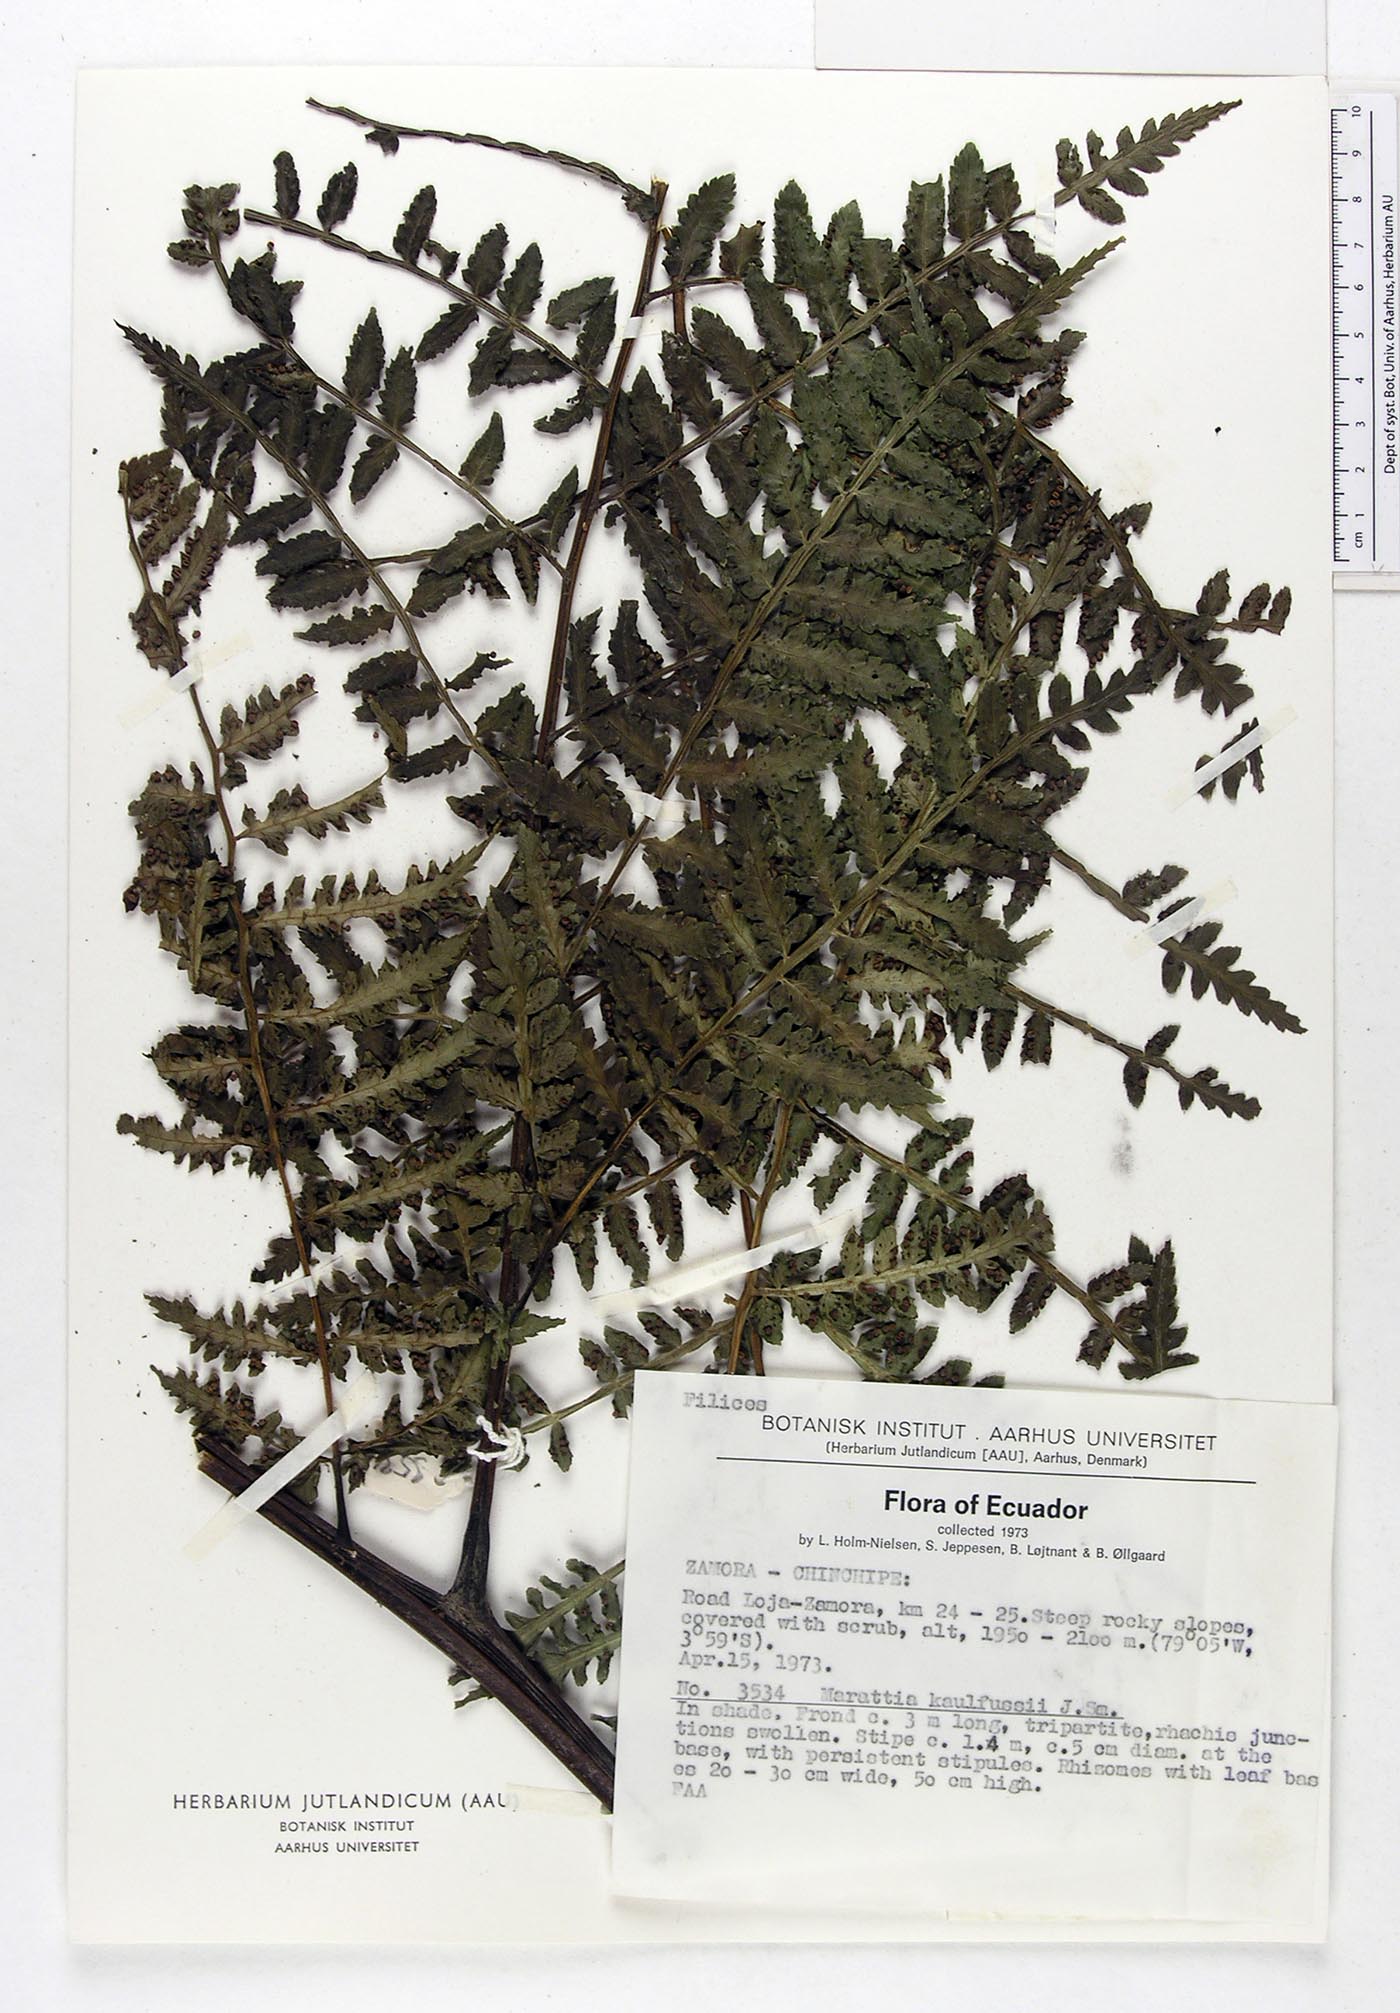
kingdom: Plantae
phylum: Tracheophyta
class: Polypodiopsida
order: Marattiales
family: Marattiaceae
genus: Eupodium
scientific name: Eupodium kaulfussii
